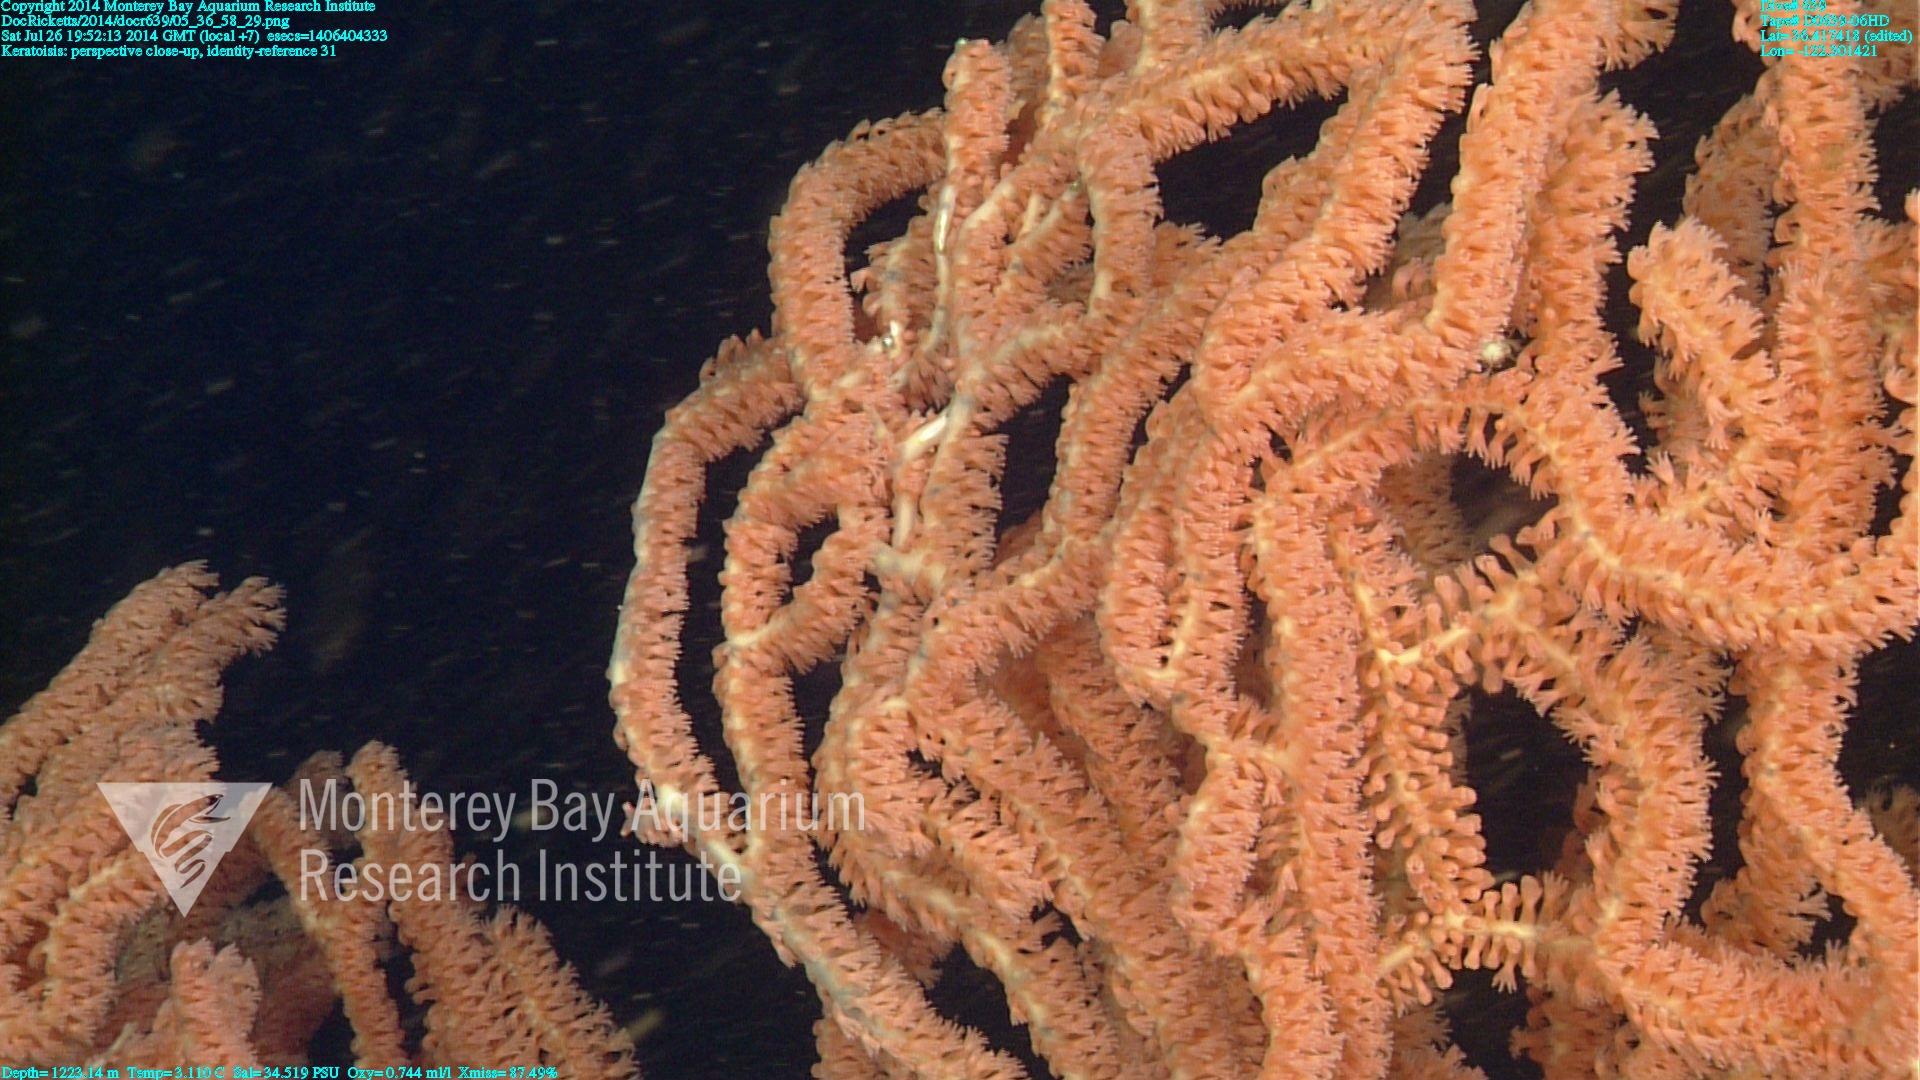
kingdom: Animalia
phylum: Cnidaria
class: Anthozoa
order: Scleralcyonacea
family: Keratoisididae
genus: Keratoisis
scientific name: Keratoisis
